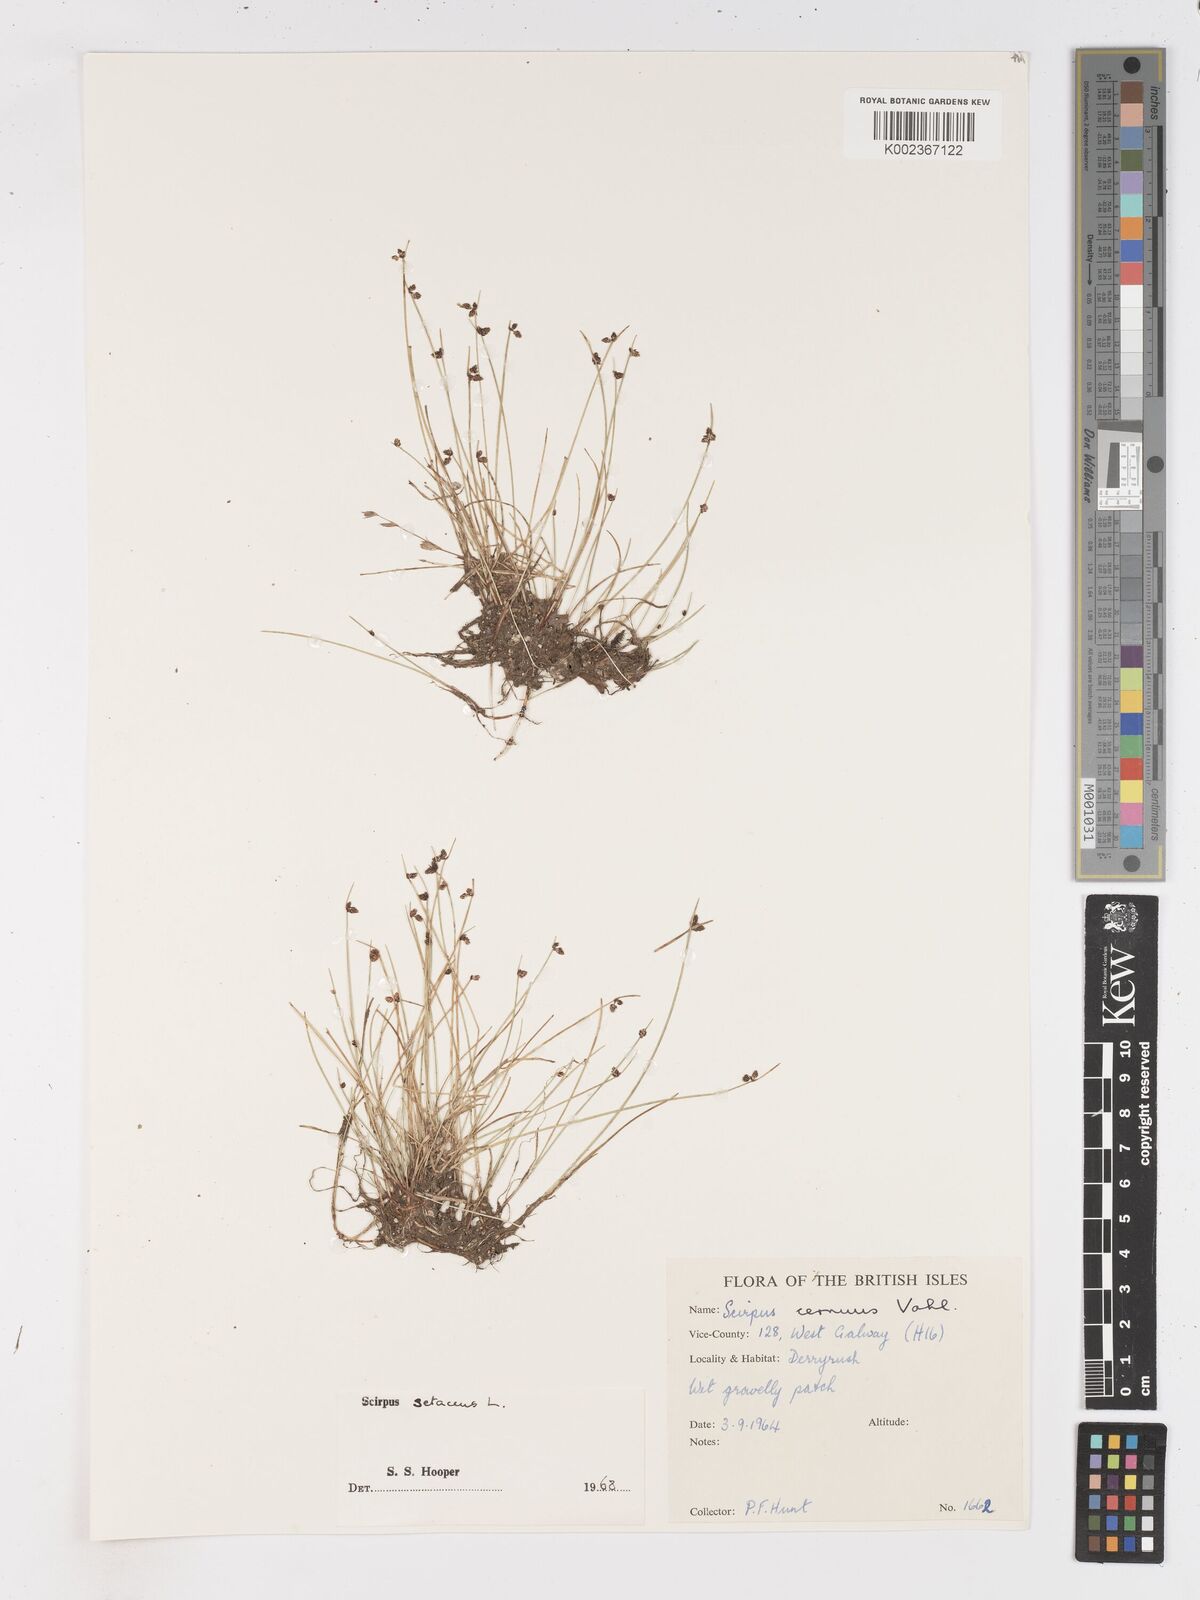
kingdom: Plantae
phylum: Tracheophyta
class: Liliopsida
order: Poales
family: Cyperaceae
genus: Isolepis
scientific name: Isolepis setacea
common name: Bristle club-rush
